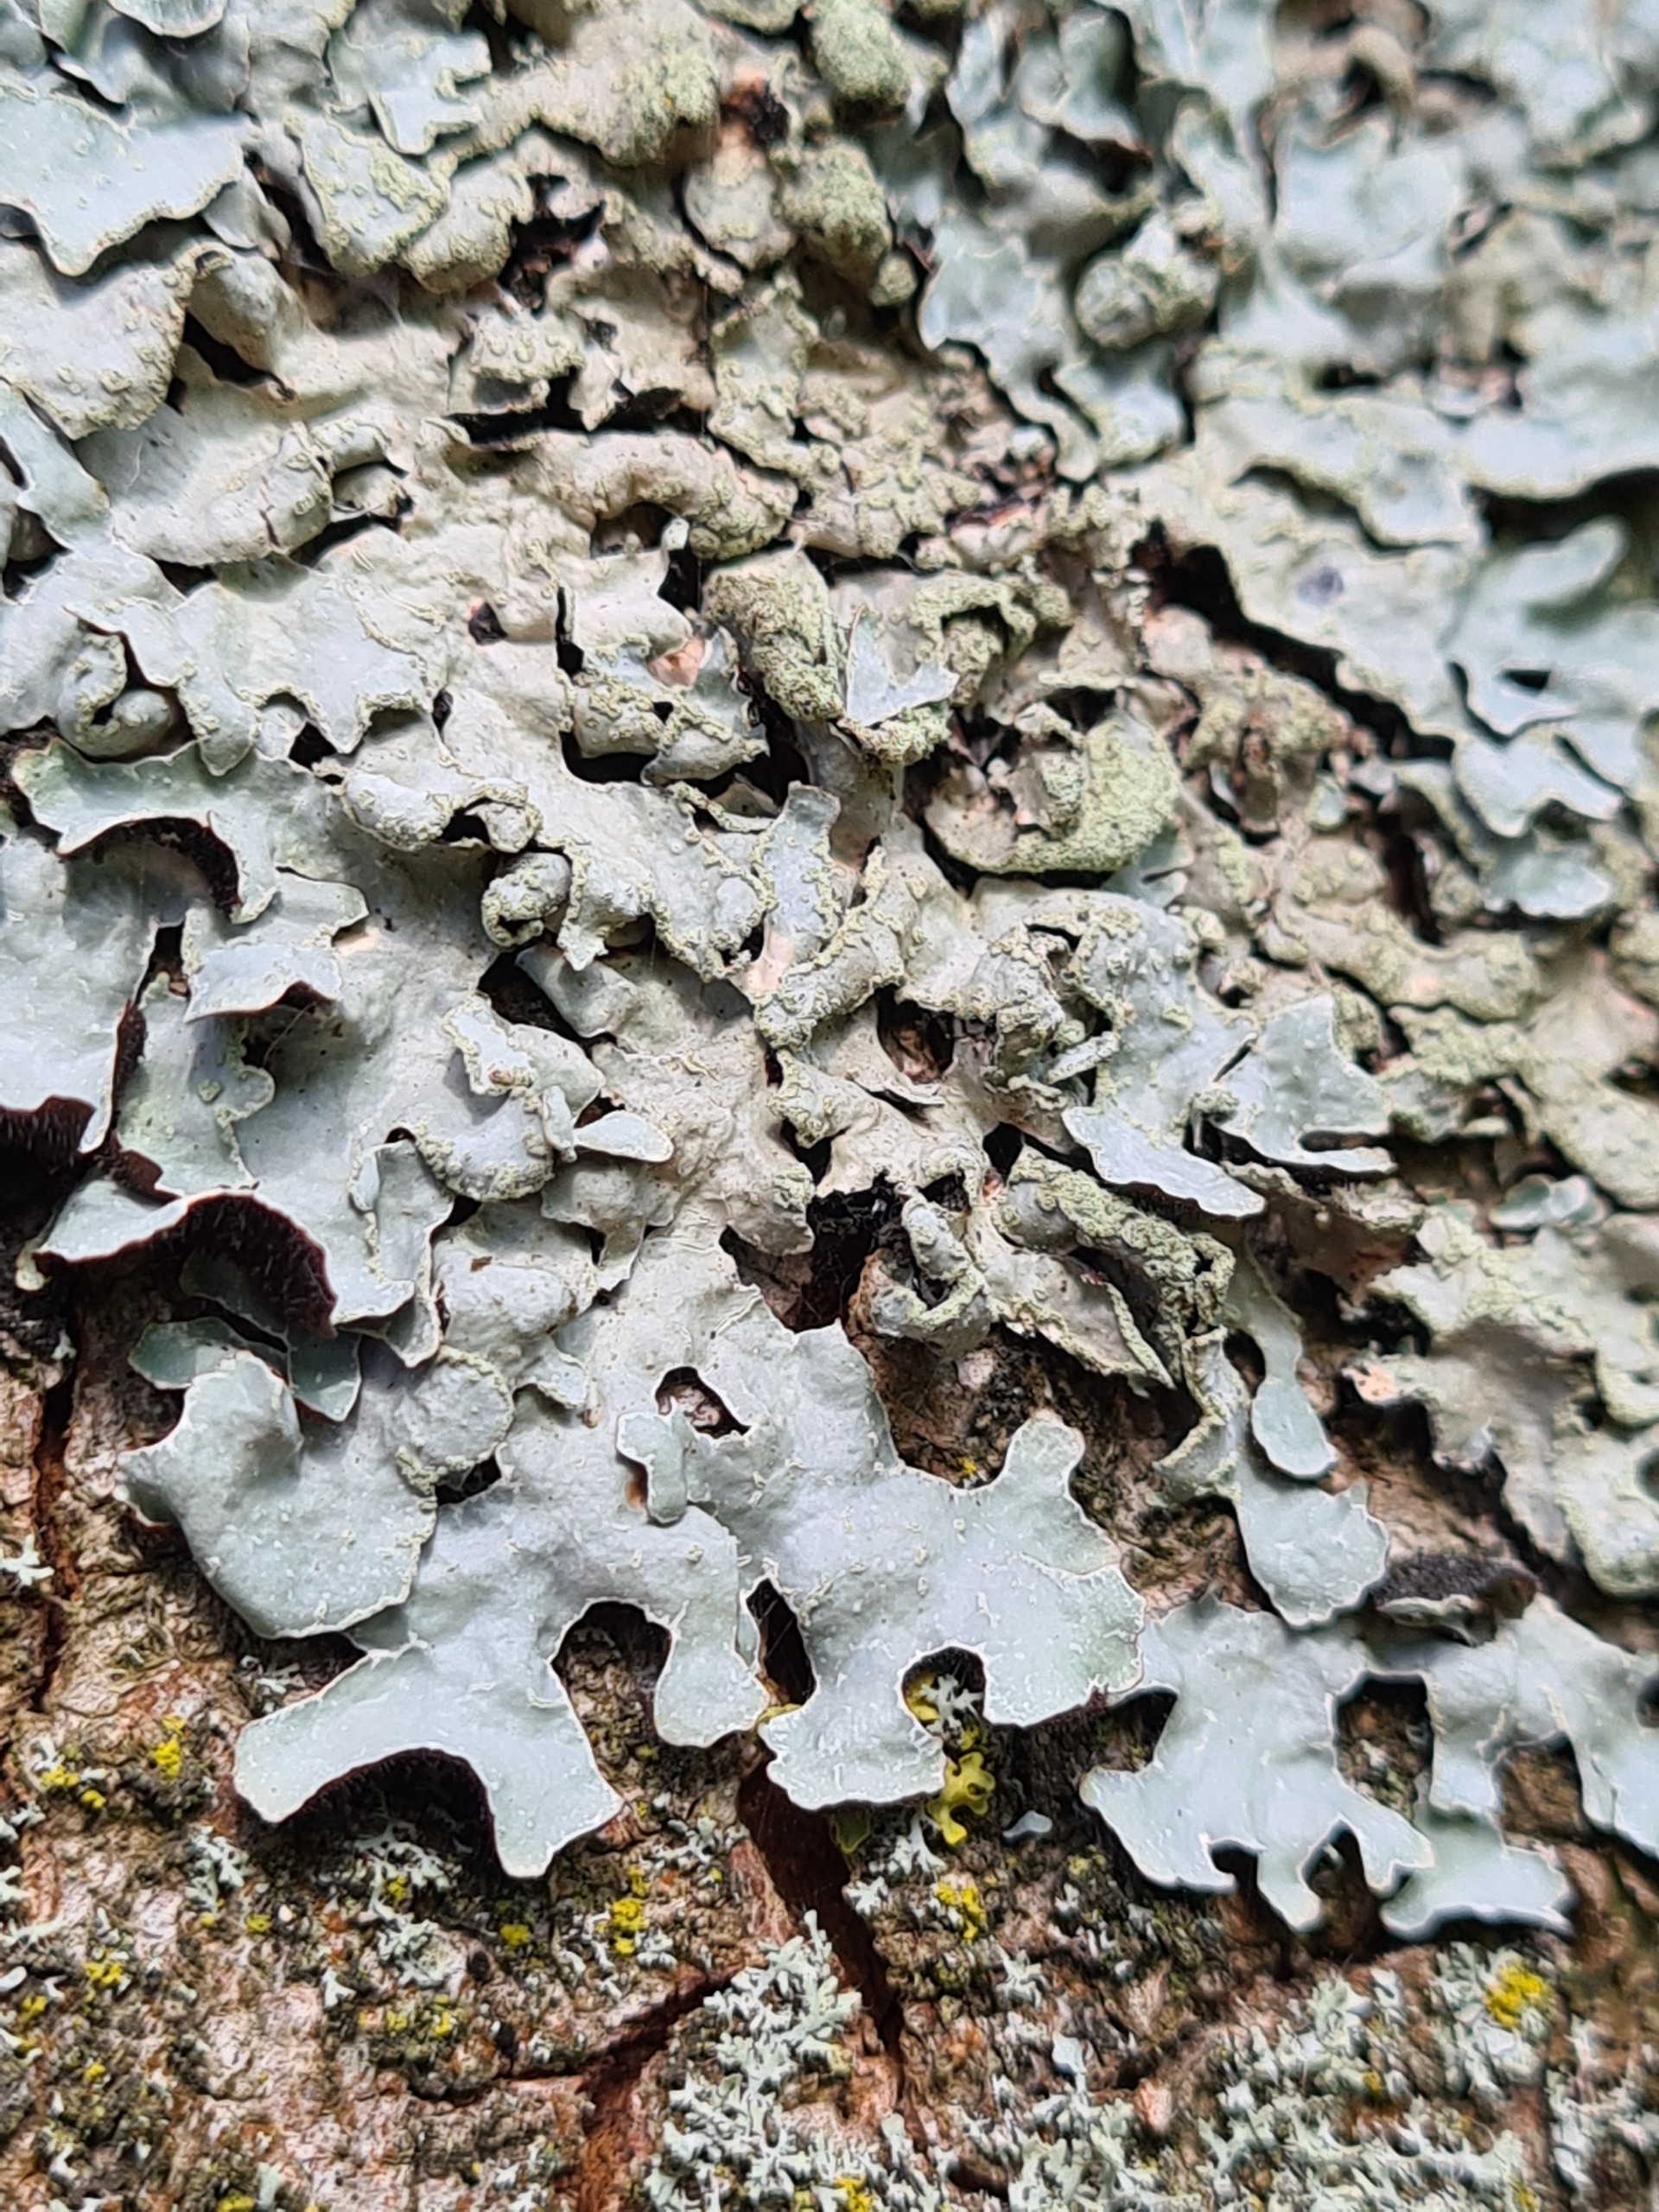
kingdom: Fungi
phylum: Ascomycota
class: Lecanoromycetes
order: Lecanorales
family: Parmeliaceae
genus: Parmelia
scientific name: Parmelia sulcata
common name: Rynket skållav
